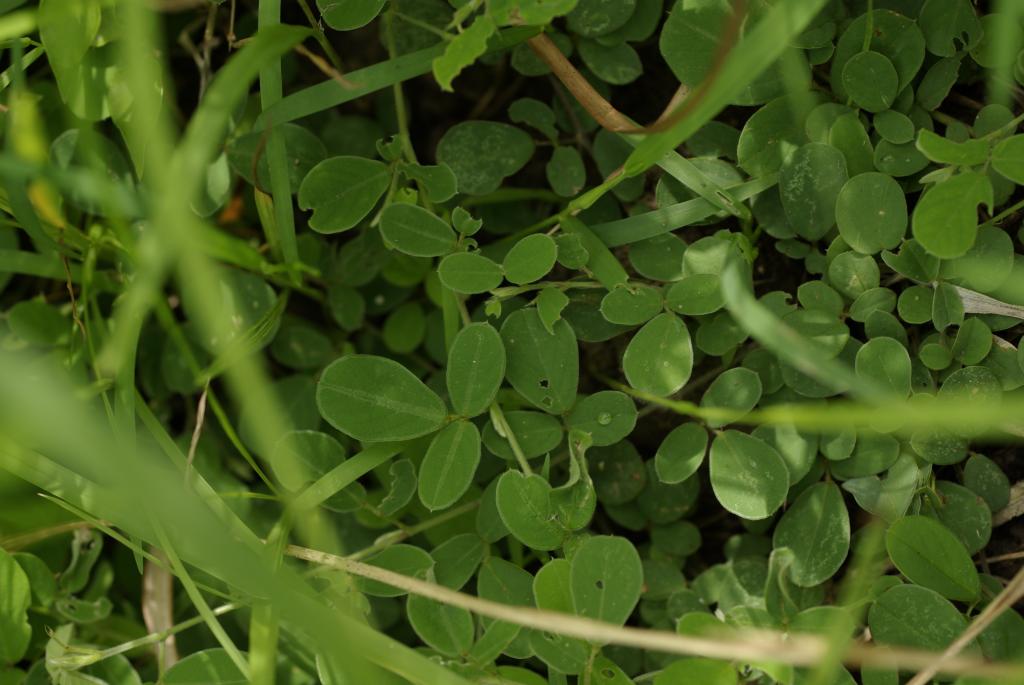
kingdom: Plantae
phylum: Tracheophyta
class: Magnoliopsida
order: Fabales
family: Fabaceae
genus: Pycnospora
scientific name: Pycnospora lutescens
